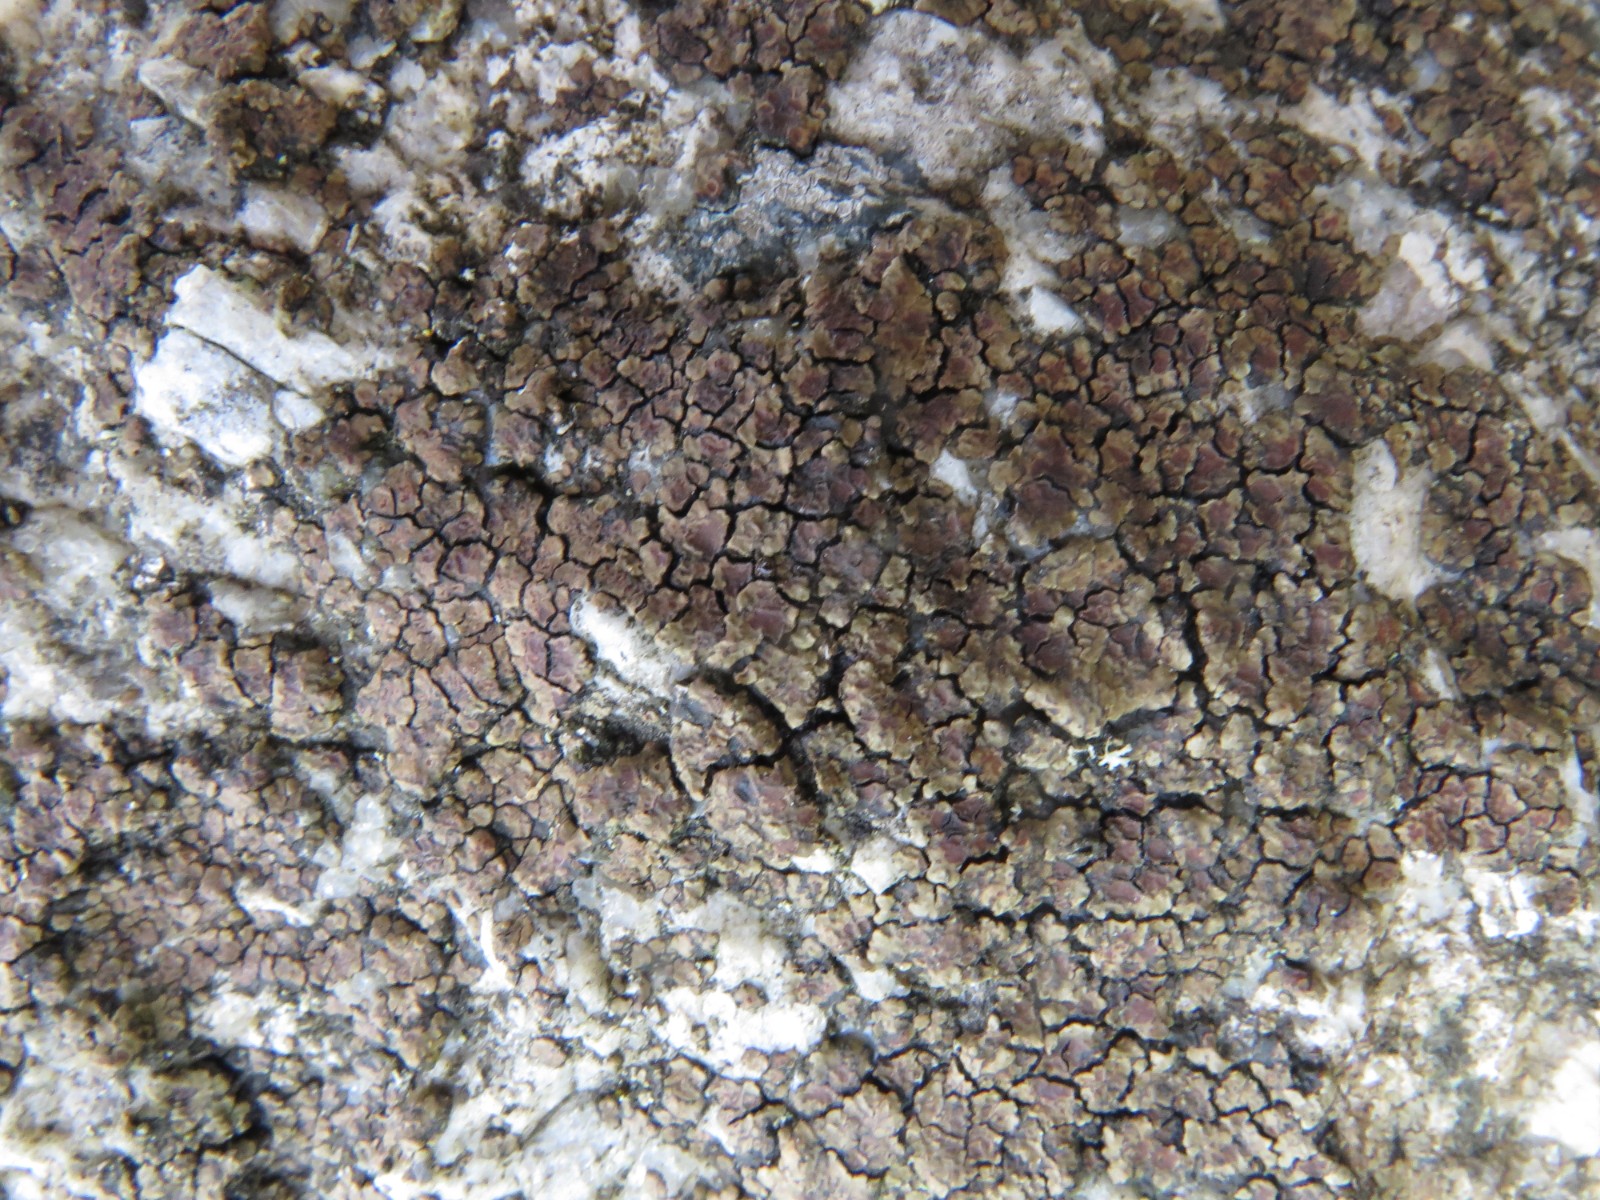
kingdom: Fungi
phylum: Ascomycota
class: Lecanoromycetes
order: Acarosporales
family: Acarosporaceae
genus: Acarospora
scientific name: Acarospora fuscata
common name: brun småsporelav
